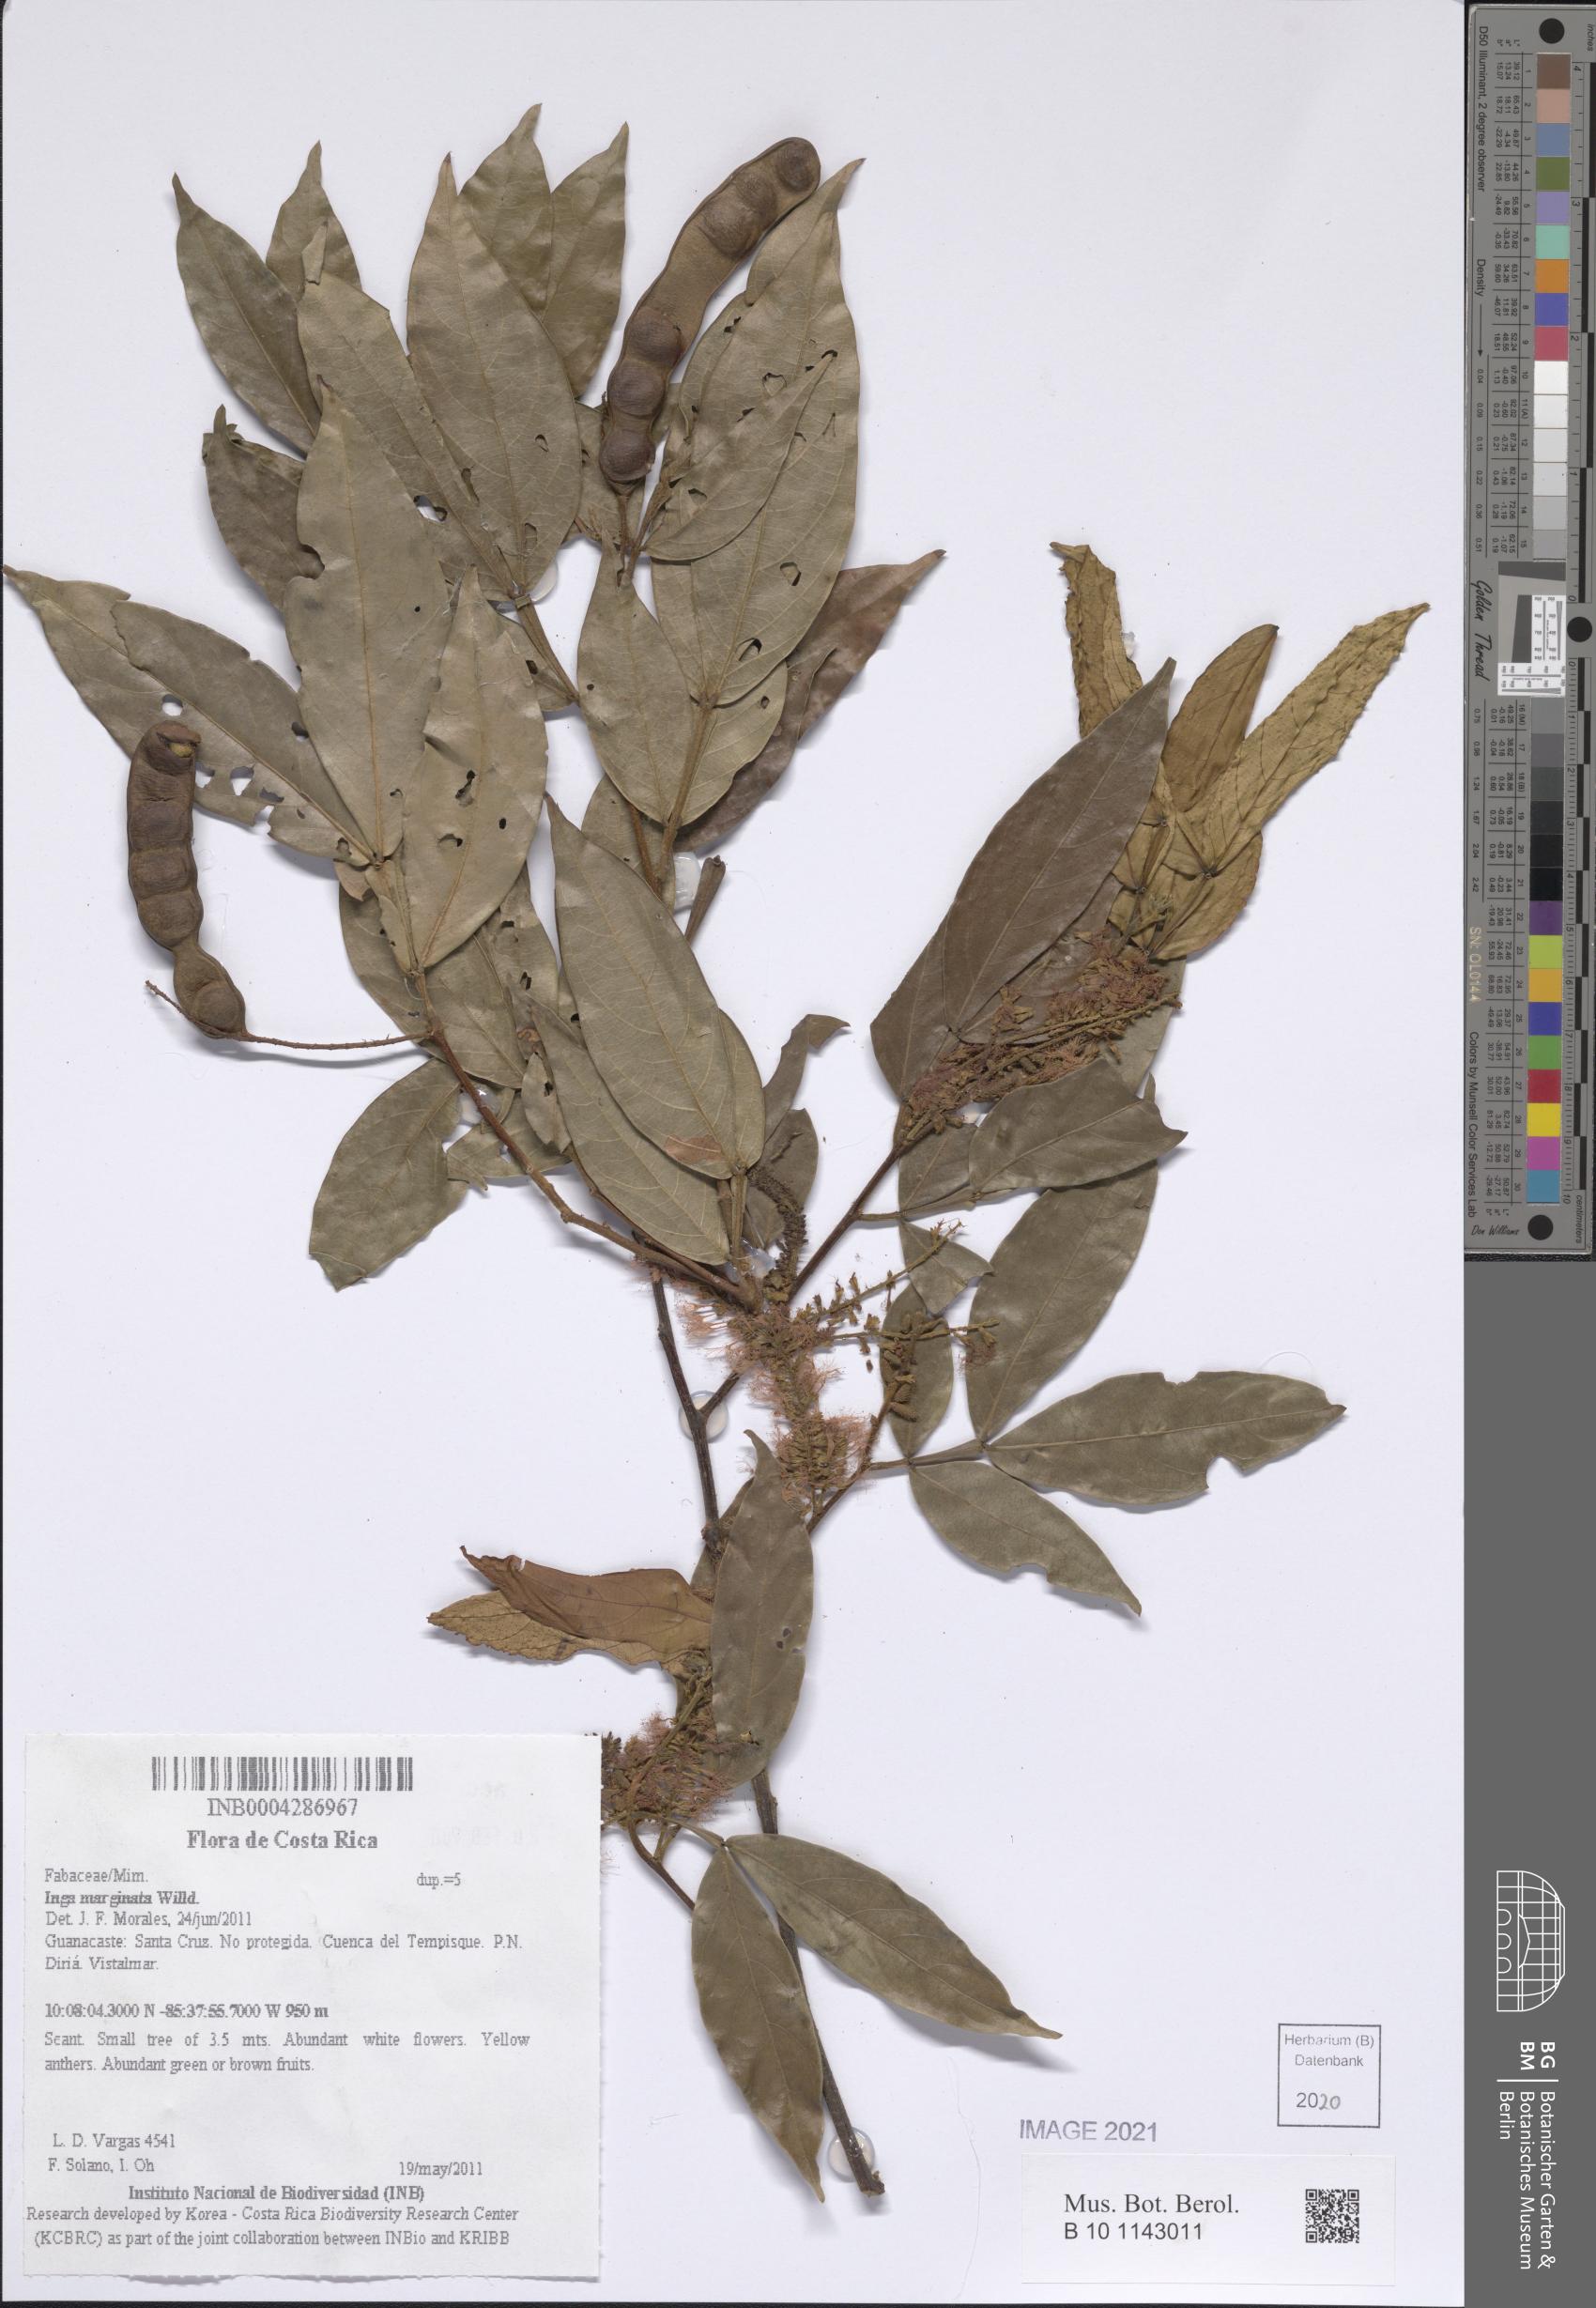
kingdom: Plantae
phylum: Tracheophyta
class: Magnoliopsida
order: Fabales
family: Fabaceae
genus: Inga
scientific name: Inga marginata
